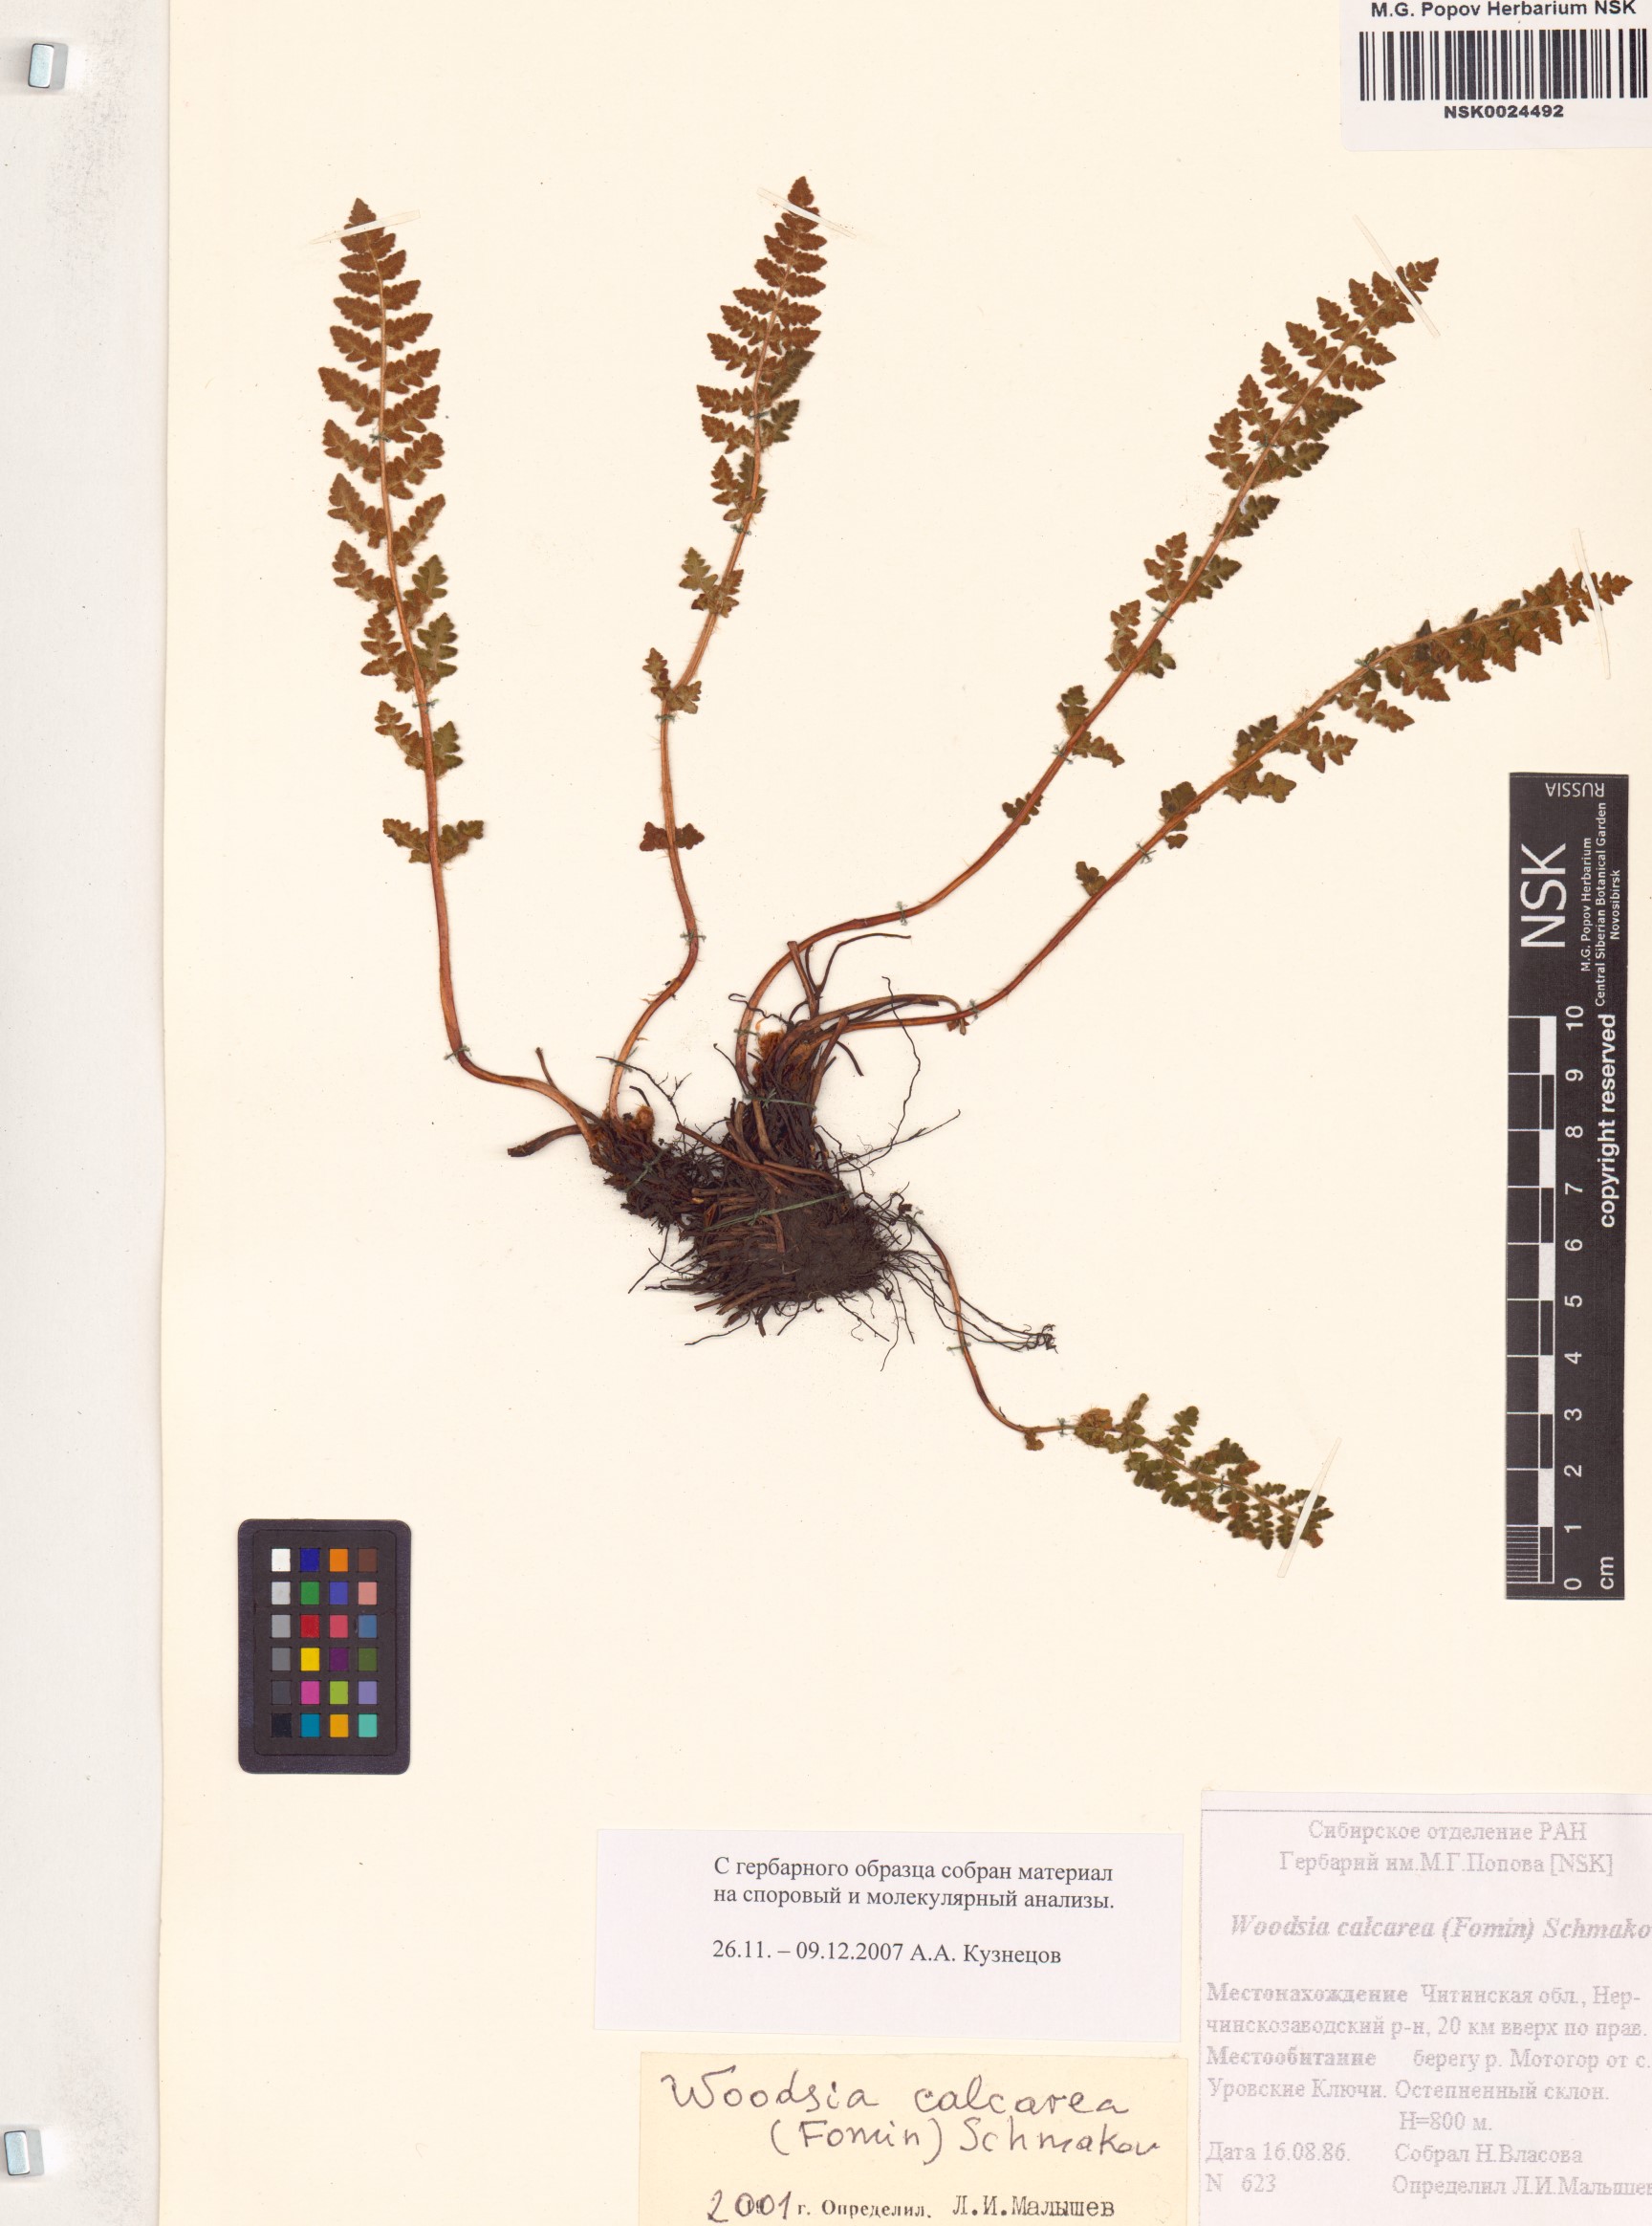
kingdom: Plantae
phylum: Tracheophyta
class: Polypodiopsida
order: Polypodiales
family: Woodsiaceae
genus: Woodsia
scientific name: Woodsia calcarea
